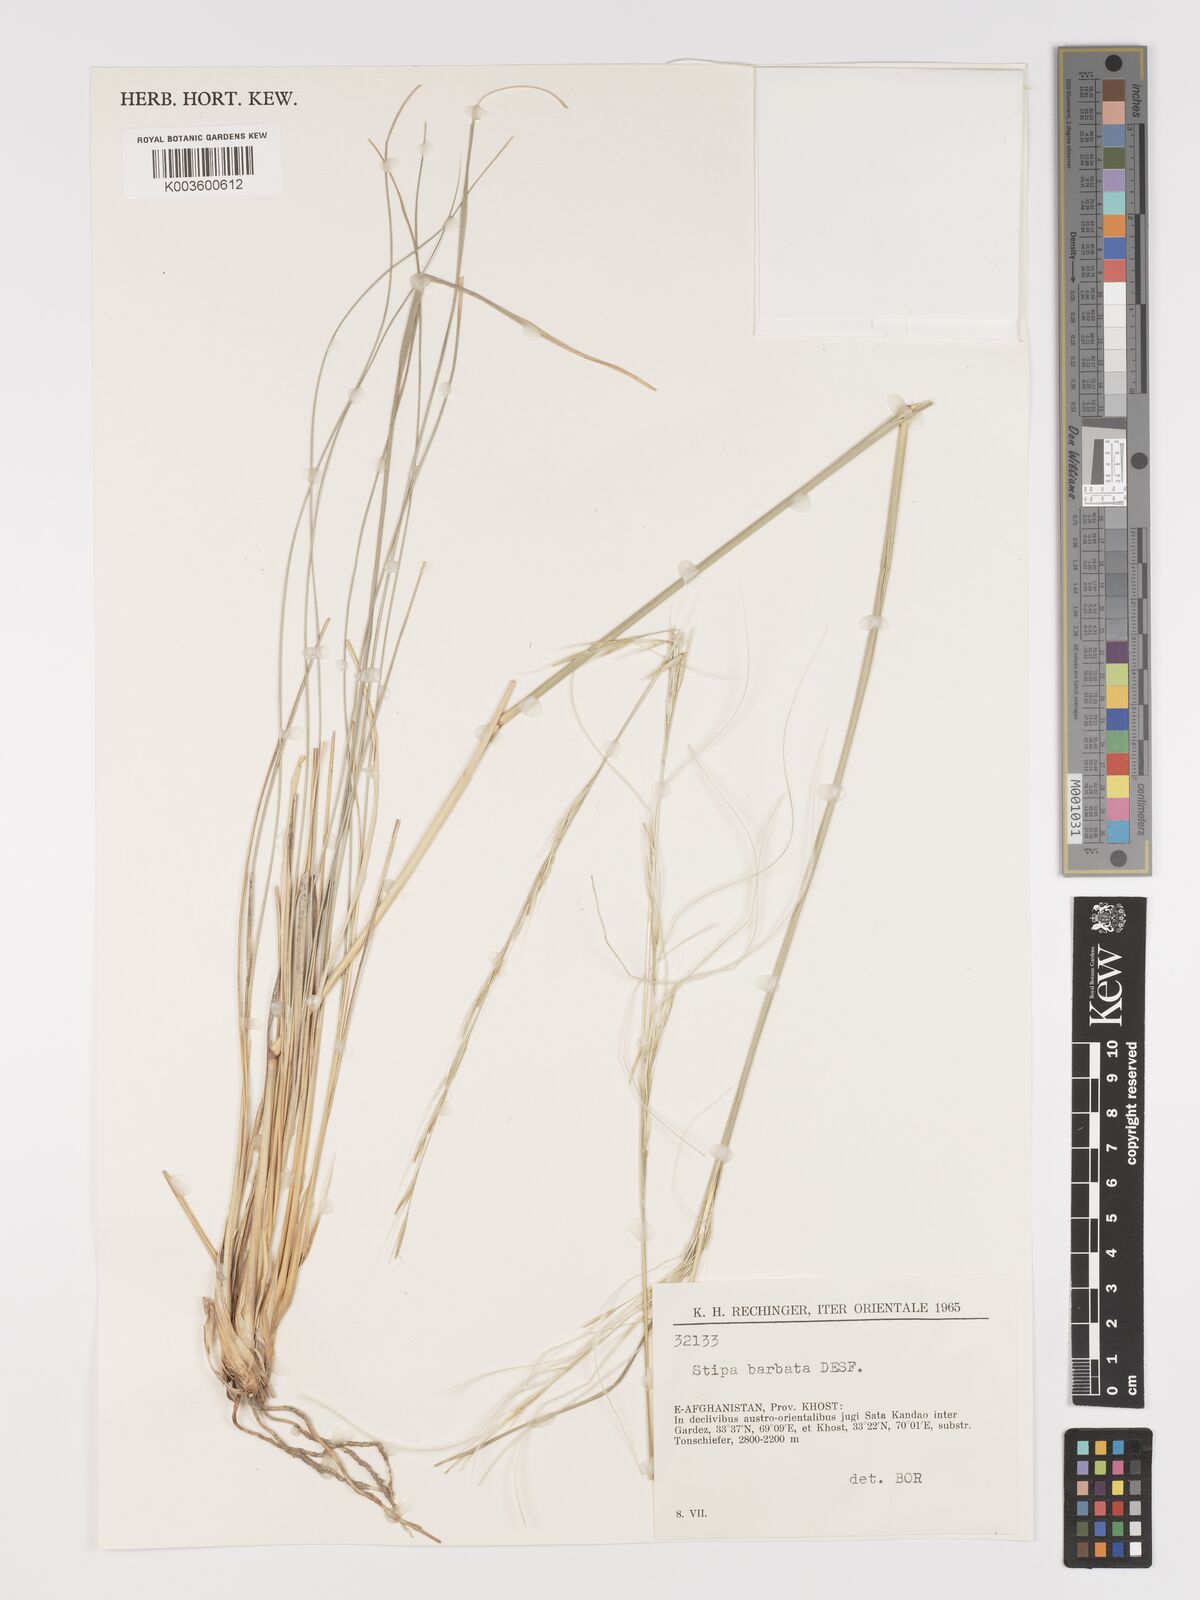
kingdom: Plantae
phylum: Tracheophyta
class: Liliopsida
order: Poales
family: Poaceae
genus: Stipa
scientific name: Stipa barbata
